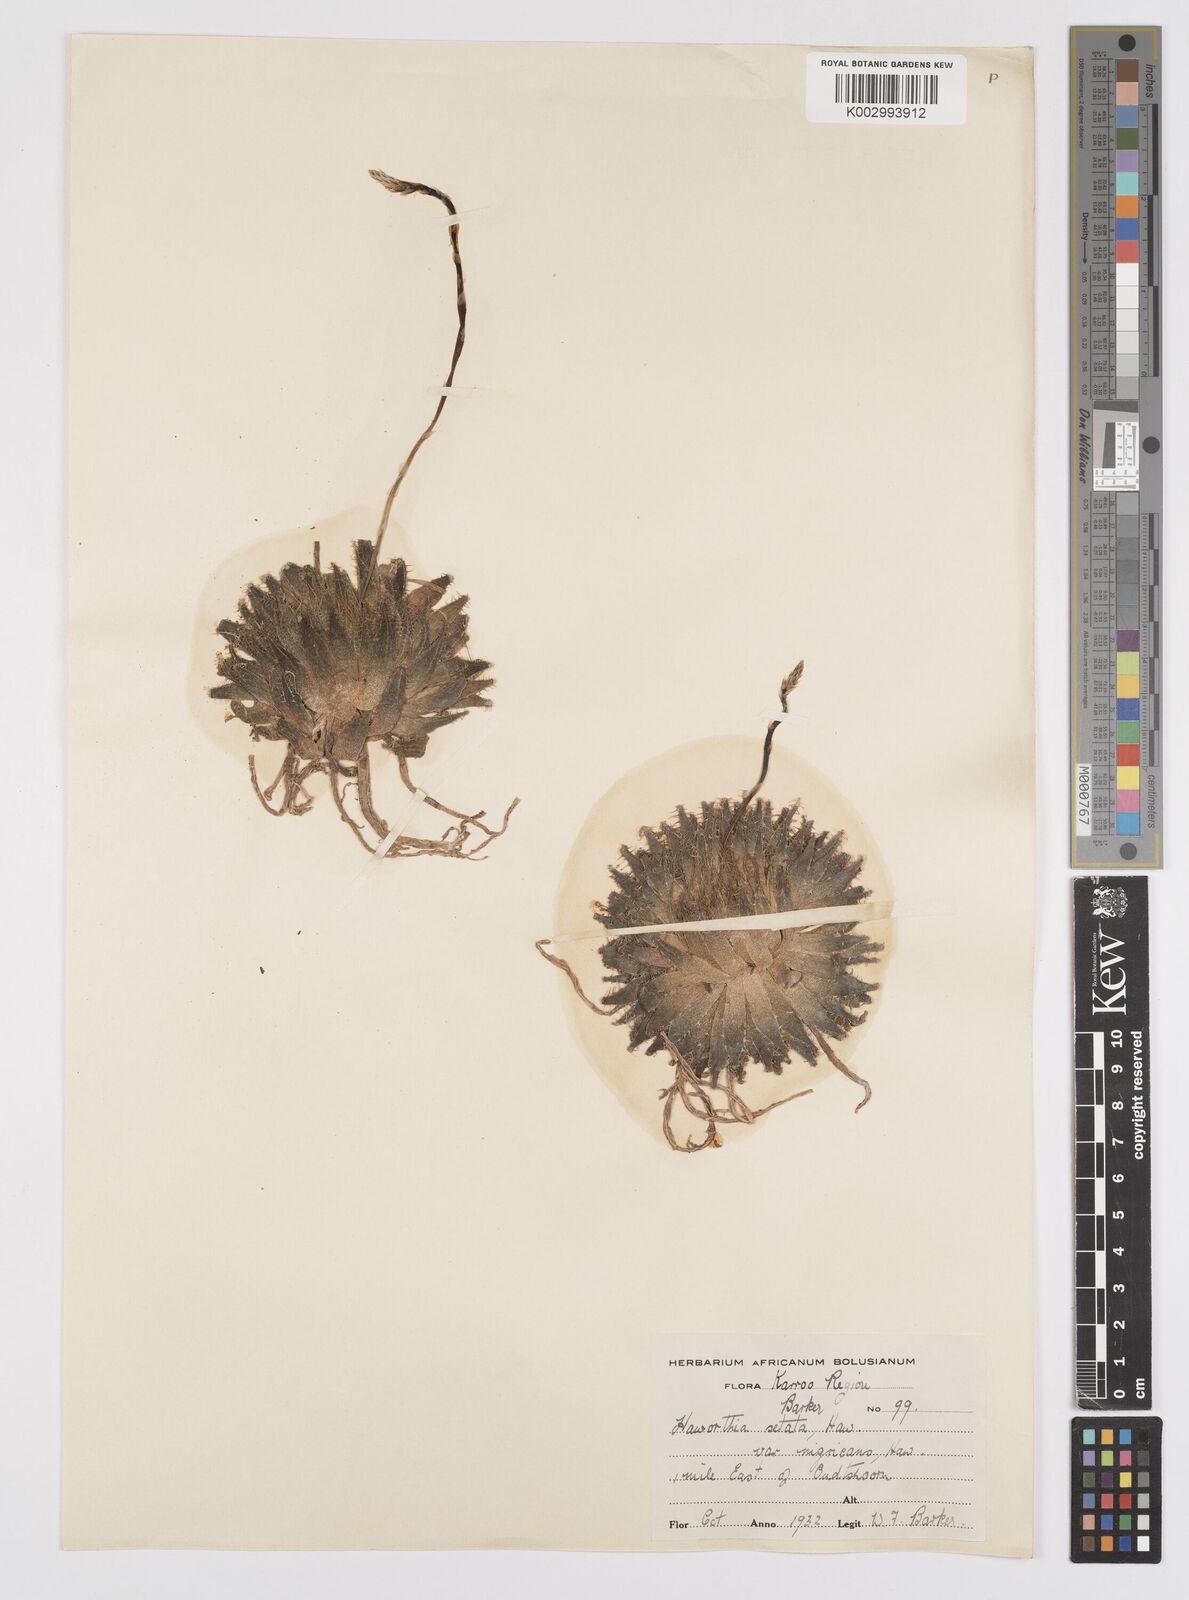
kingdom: Plantae
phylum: Tracheophyta
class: Liliopsida
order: Asparagales
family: Asphodelaceae
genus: Haworthia
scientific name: Haworthia arachnoidea
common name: Cobweb-aloe
